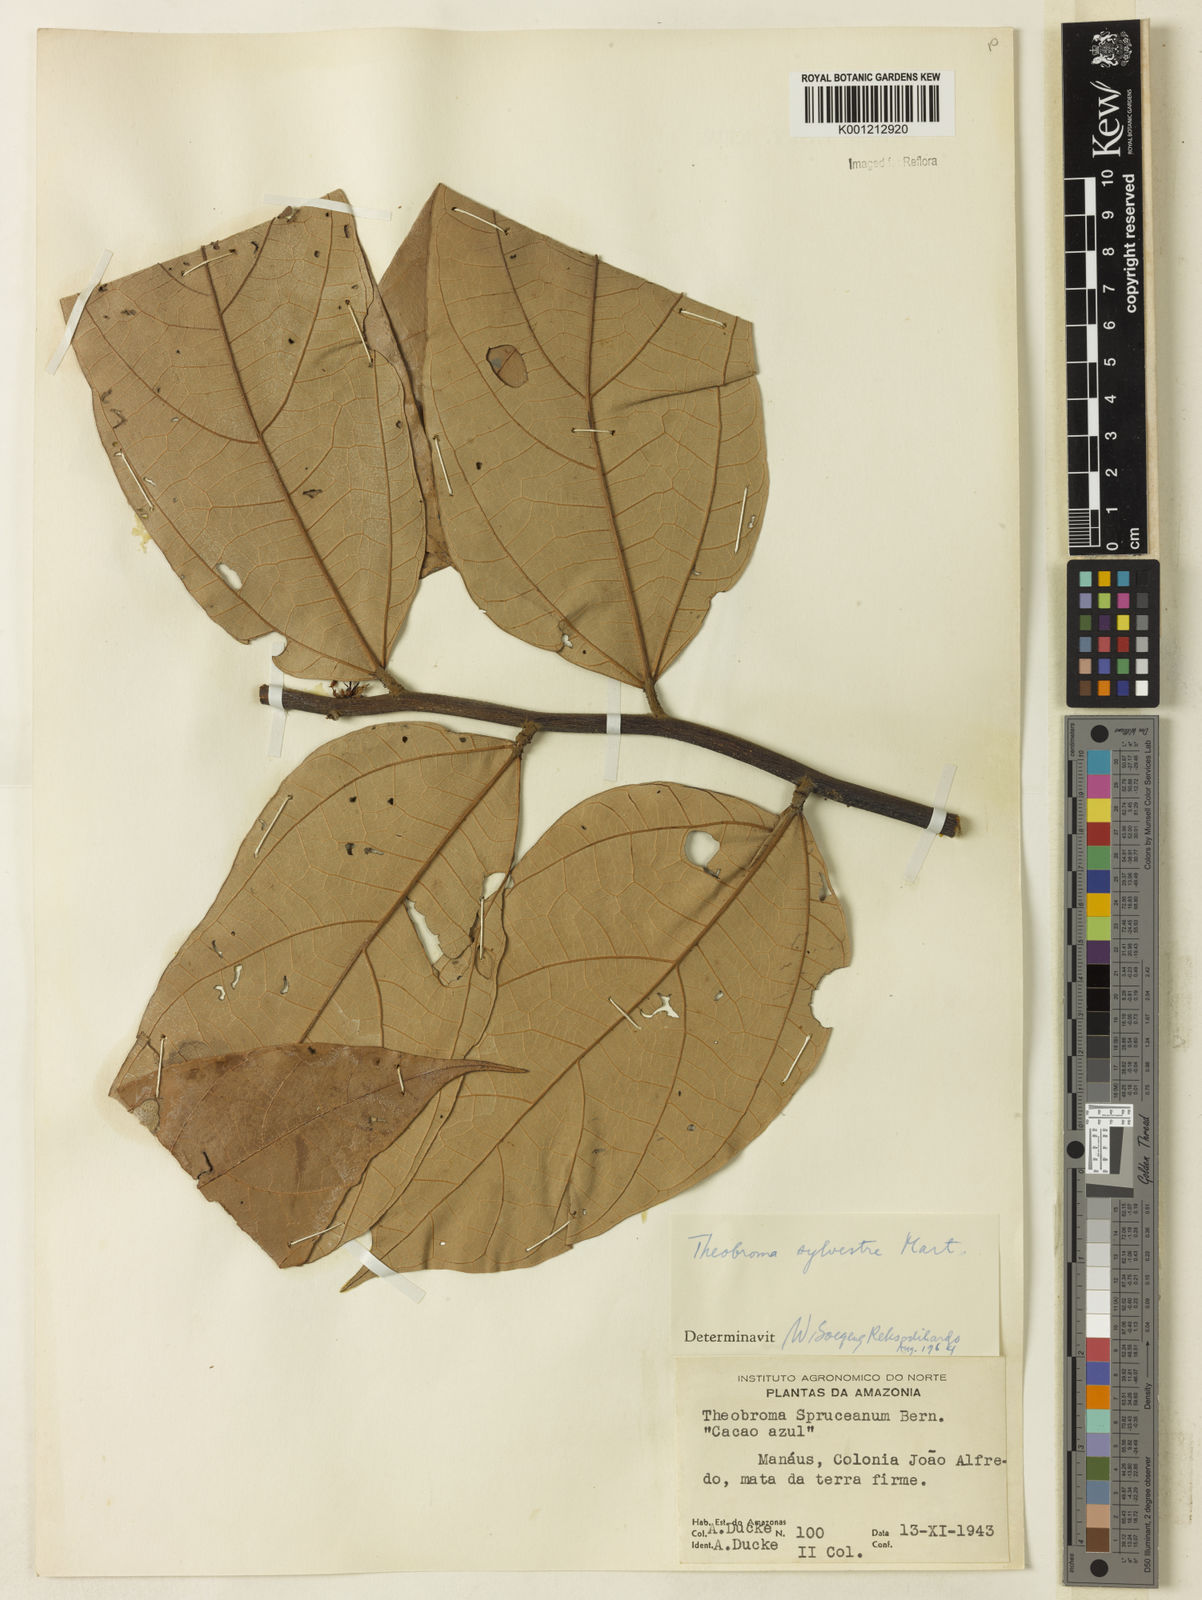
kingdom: Plantae
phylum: Tracheophyta
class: Magnoliopsida
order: Malvales
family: Malvaceae
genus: Theobroma
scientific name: Theobroma sylvestre
